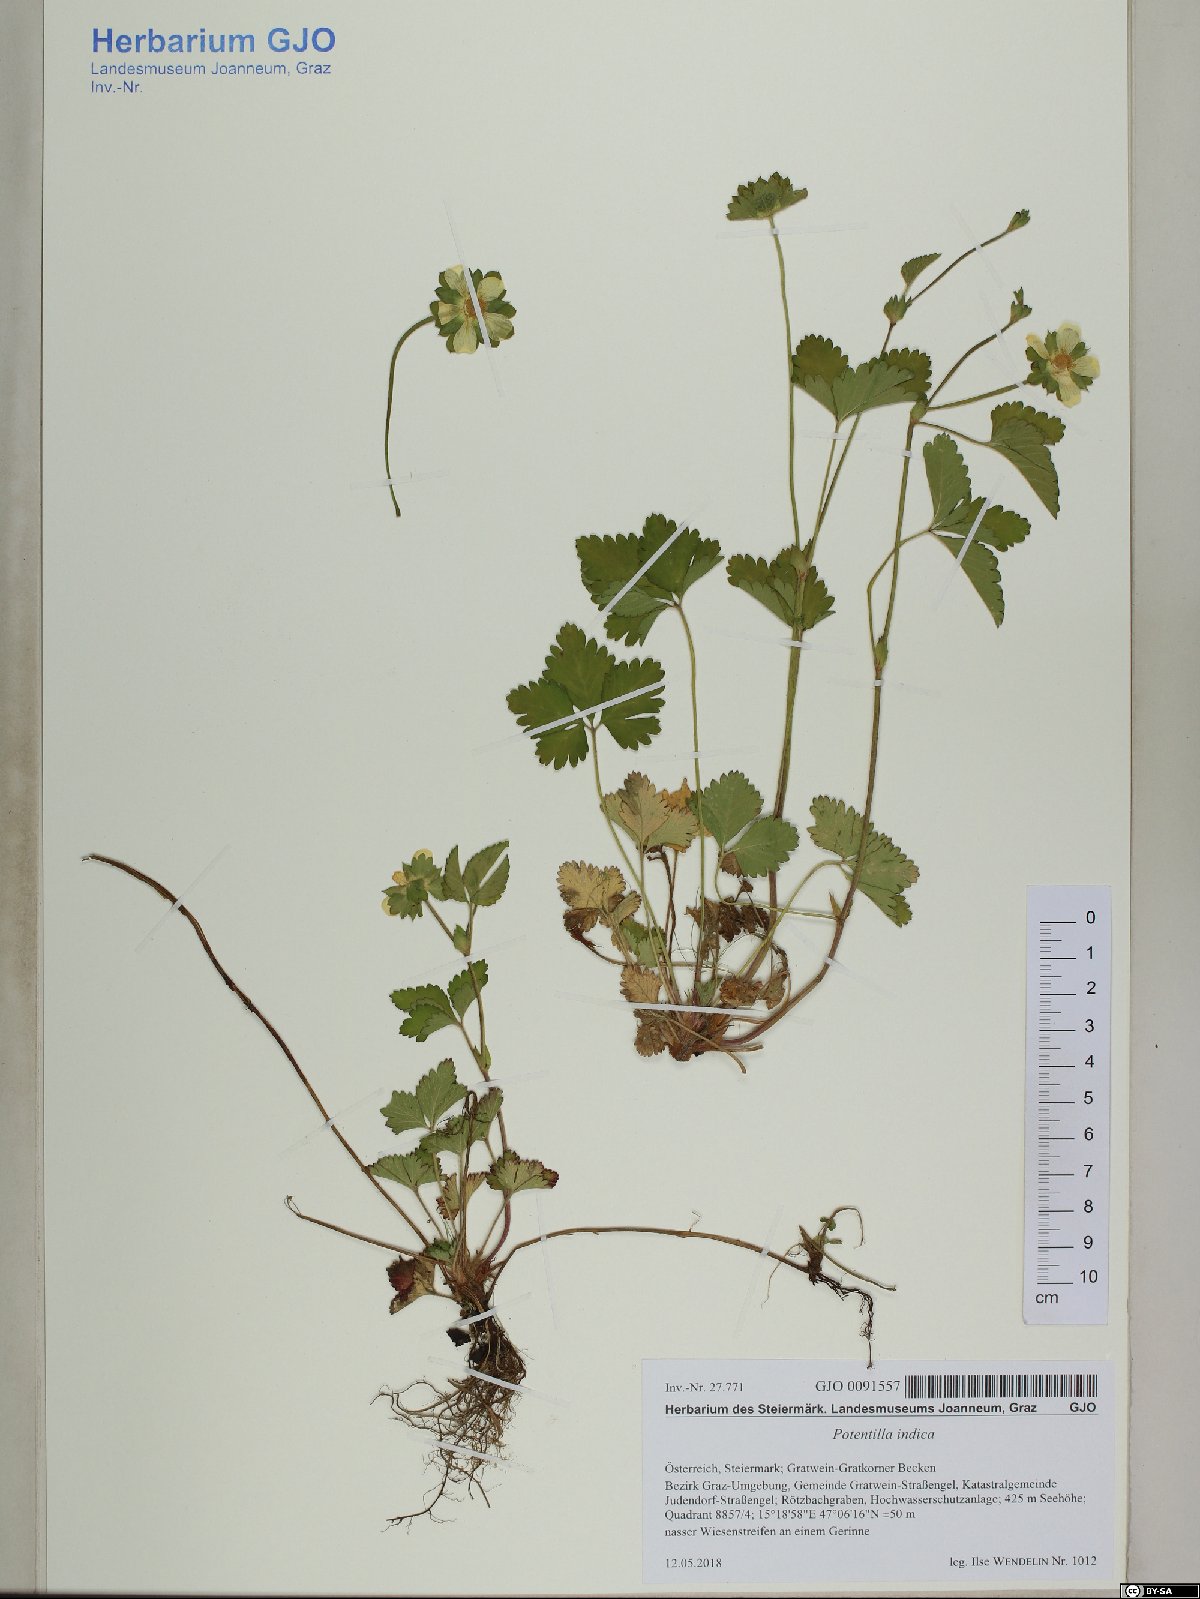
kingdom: Plantae
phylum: Tracheophyta
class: Magnoliopsida
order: Rosales
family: Rosaceae
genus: Potentilla
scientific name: Potentilla indica
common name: Yellow-flowered strawberry
